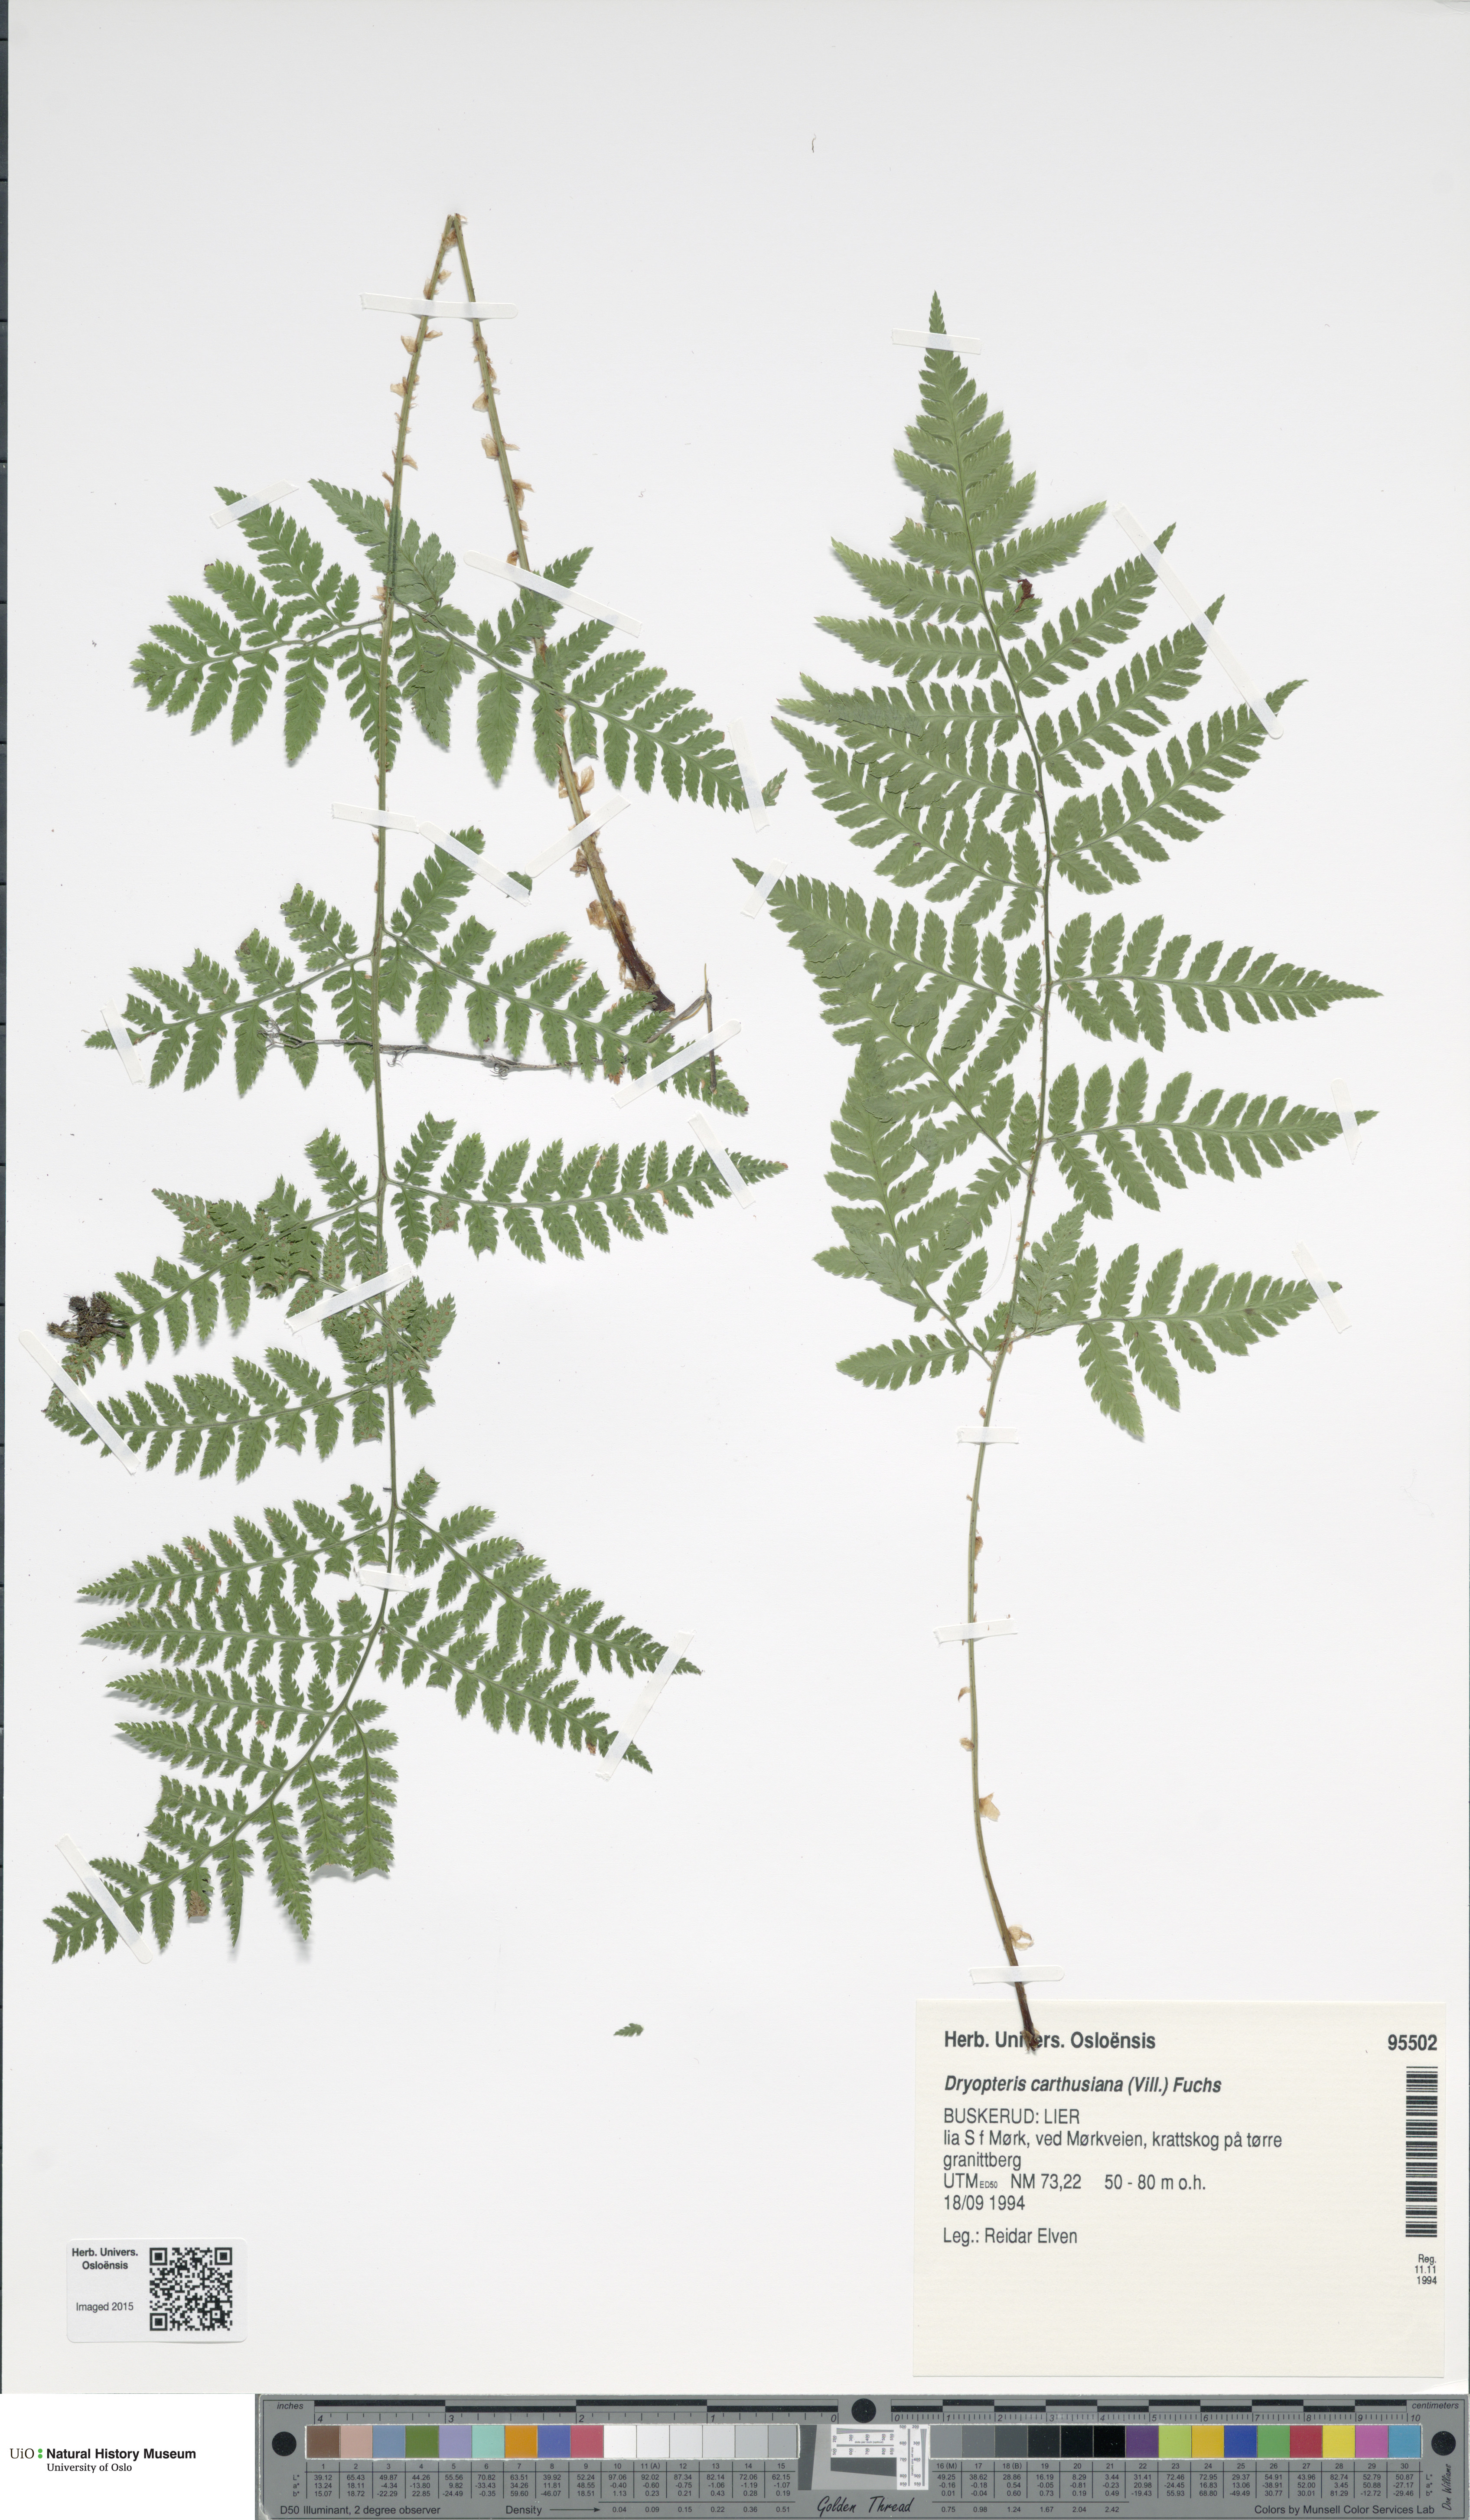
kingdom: Plantae
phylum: Tracheophyta
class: Polypodiopsida
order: Polypodiales
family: Dryopteridaceae
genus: Dryopteris
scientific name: Dryopteris carthusiana
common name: Narrow buckler-fern
